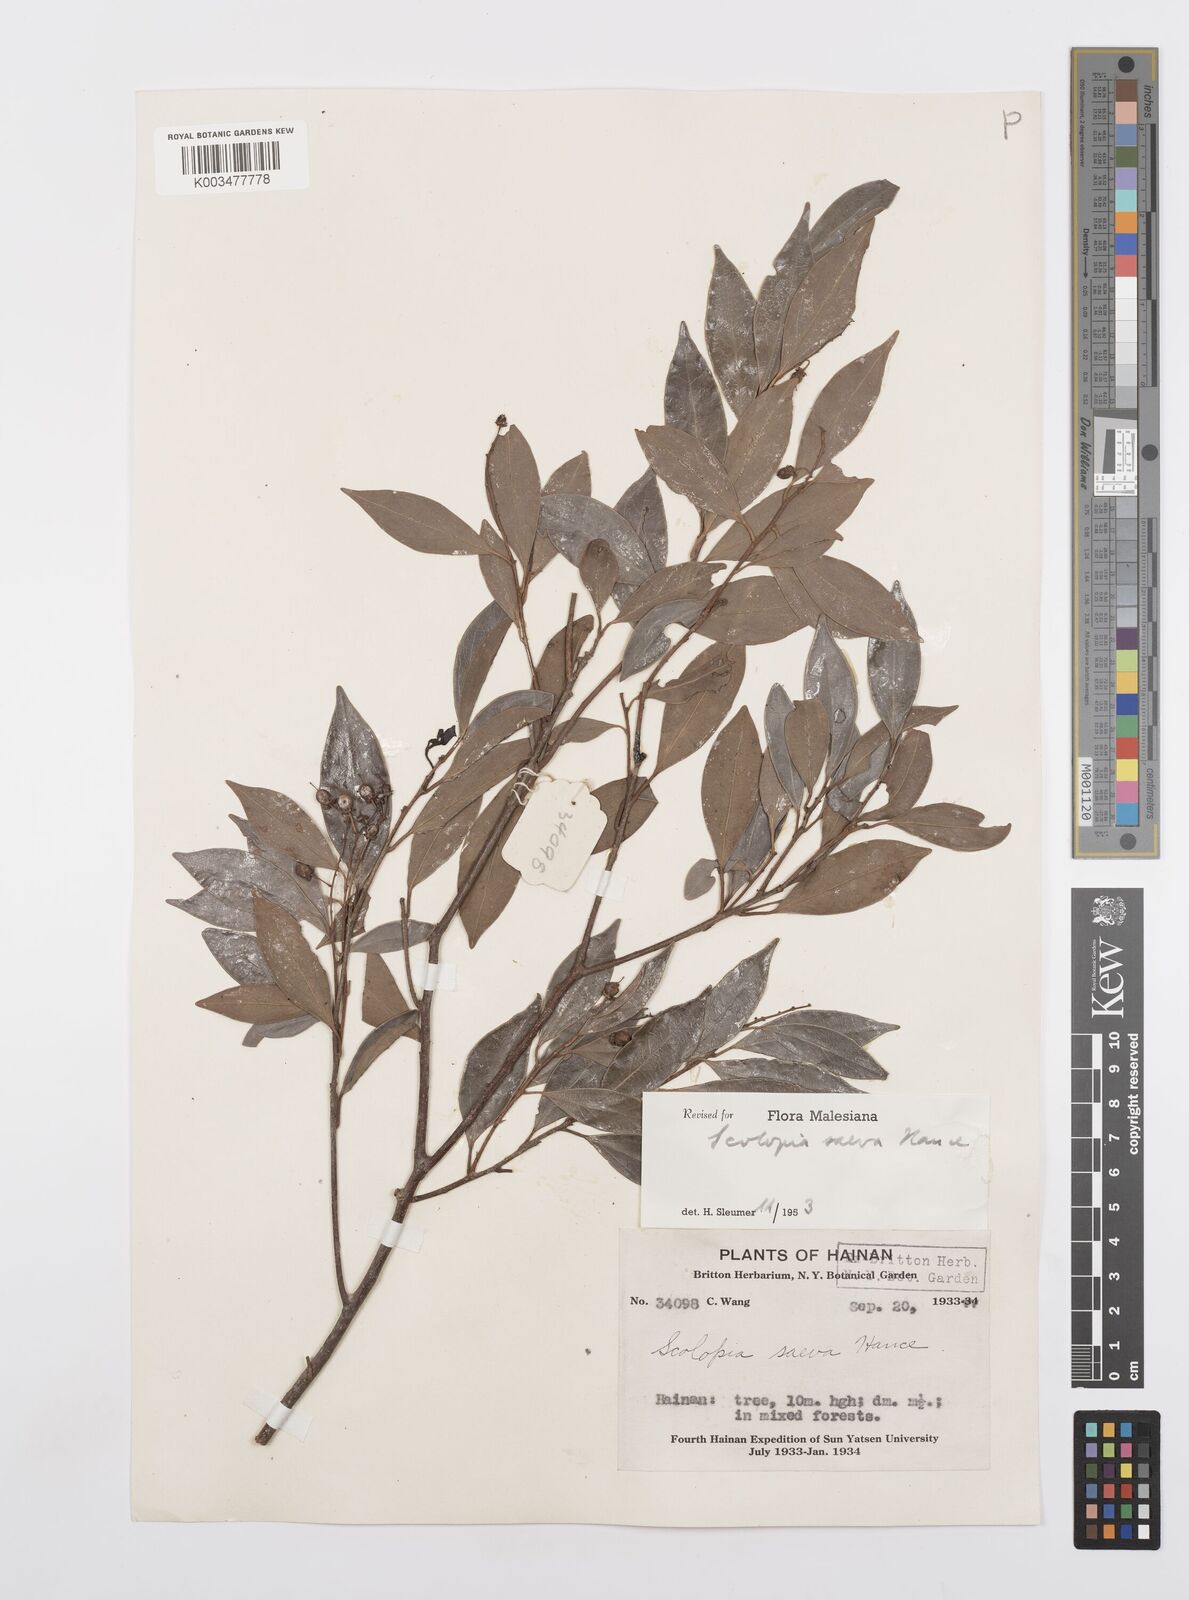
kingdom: Plantae
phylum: Tracheophyta
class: Magnoliopsida
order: Malpighiales
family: Salicaceae
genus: Scolopia
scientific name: Scolopia saeva
